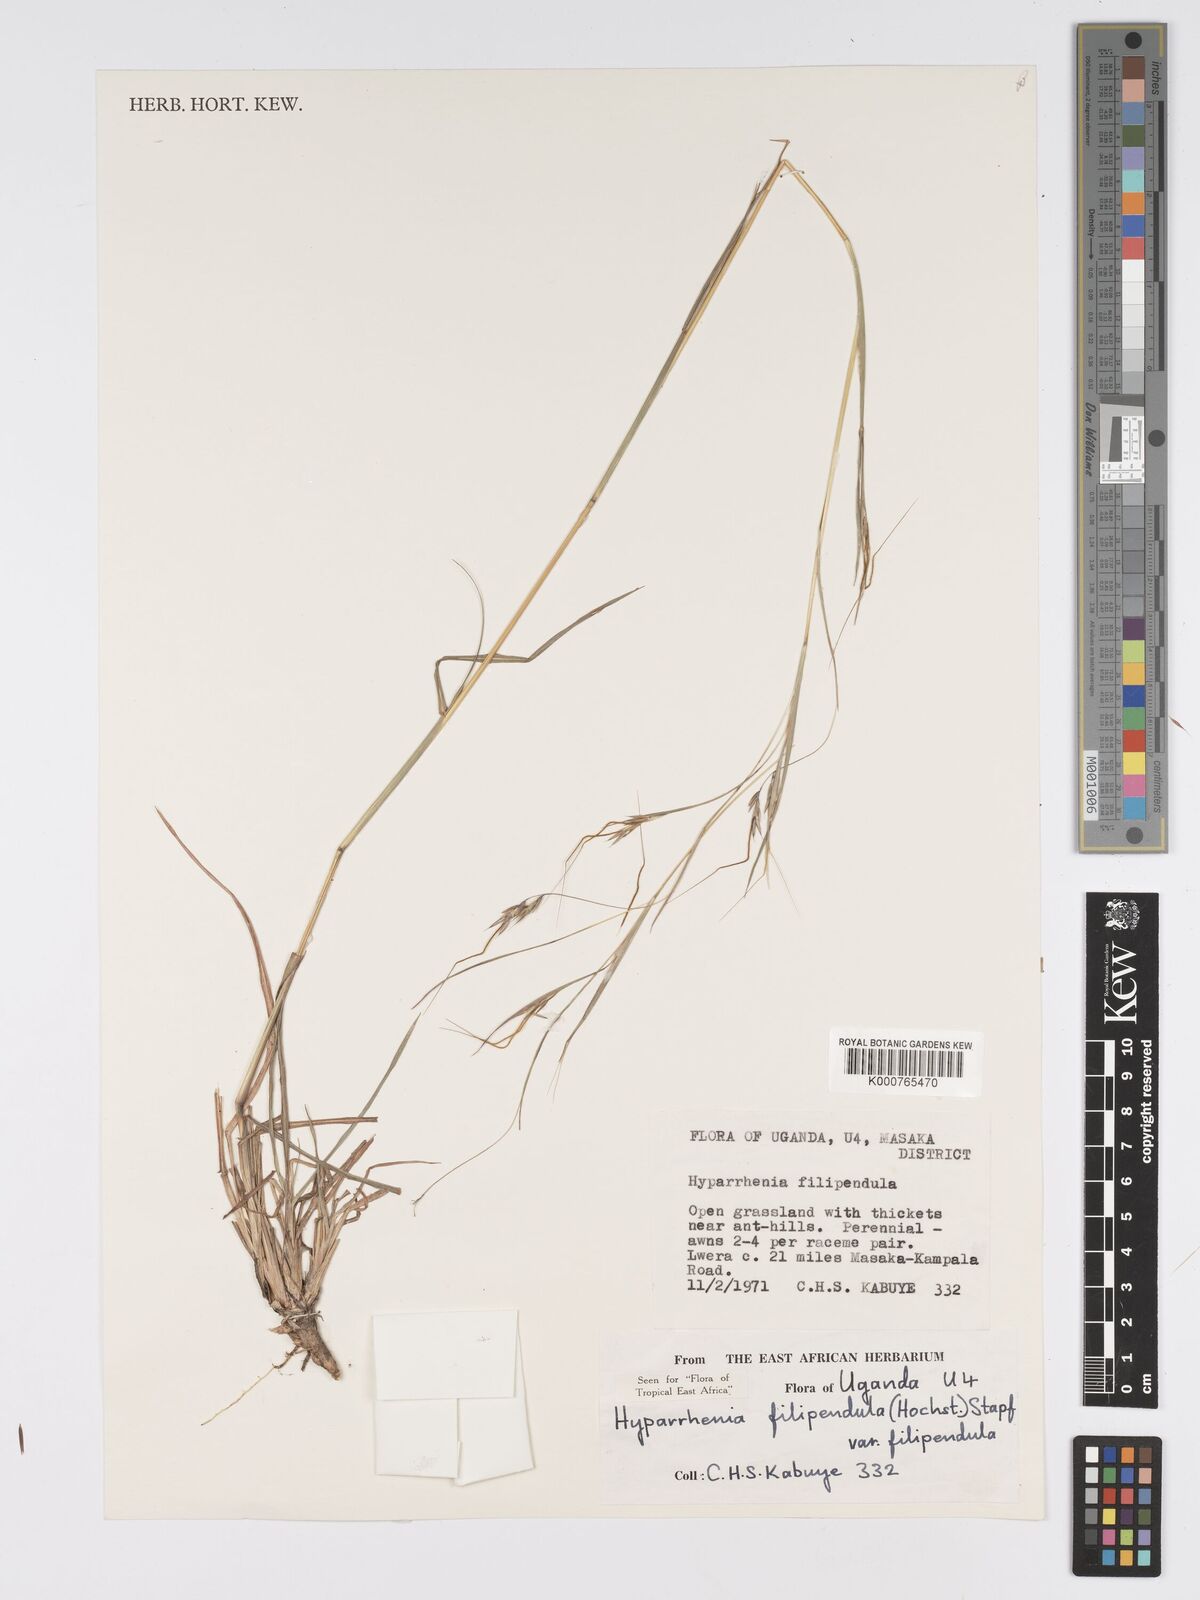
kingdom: Plantae
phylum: Tracheophyta
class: Liliopsida
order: Poales
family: Poaceae
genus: Hyparrhenia
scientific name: Hyparrhenia filipendula
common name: Tambookie grass
